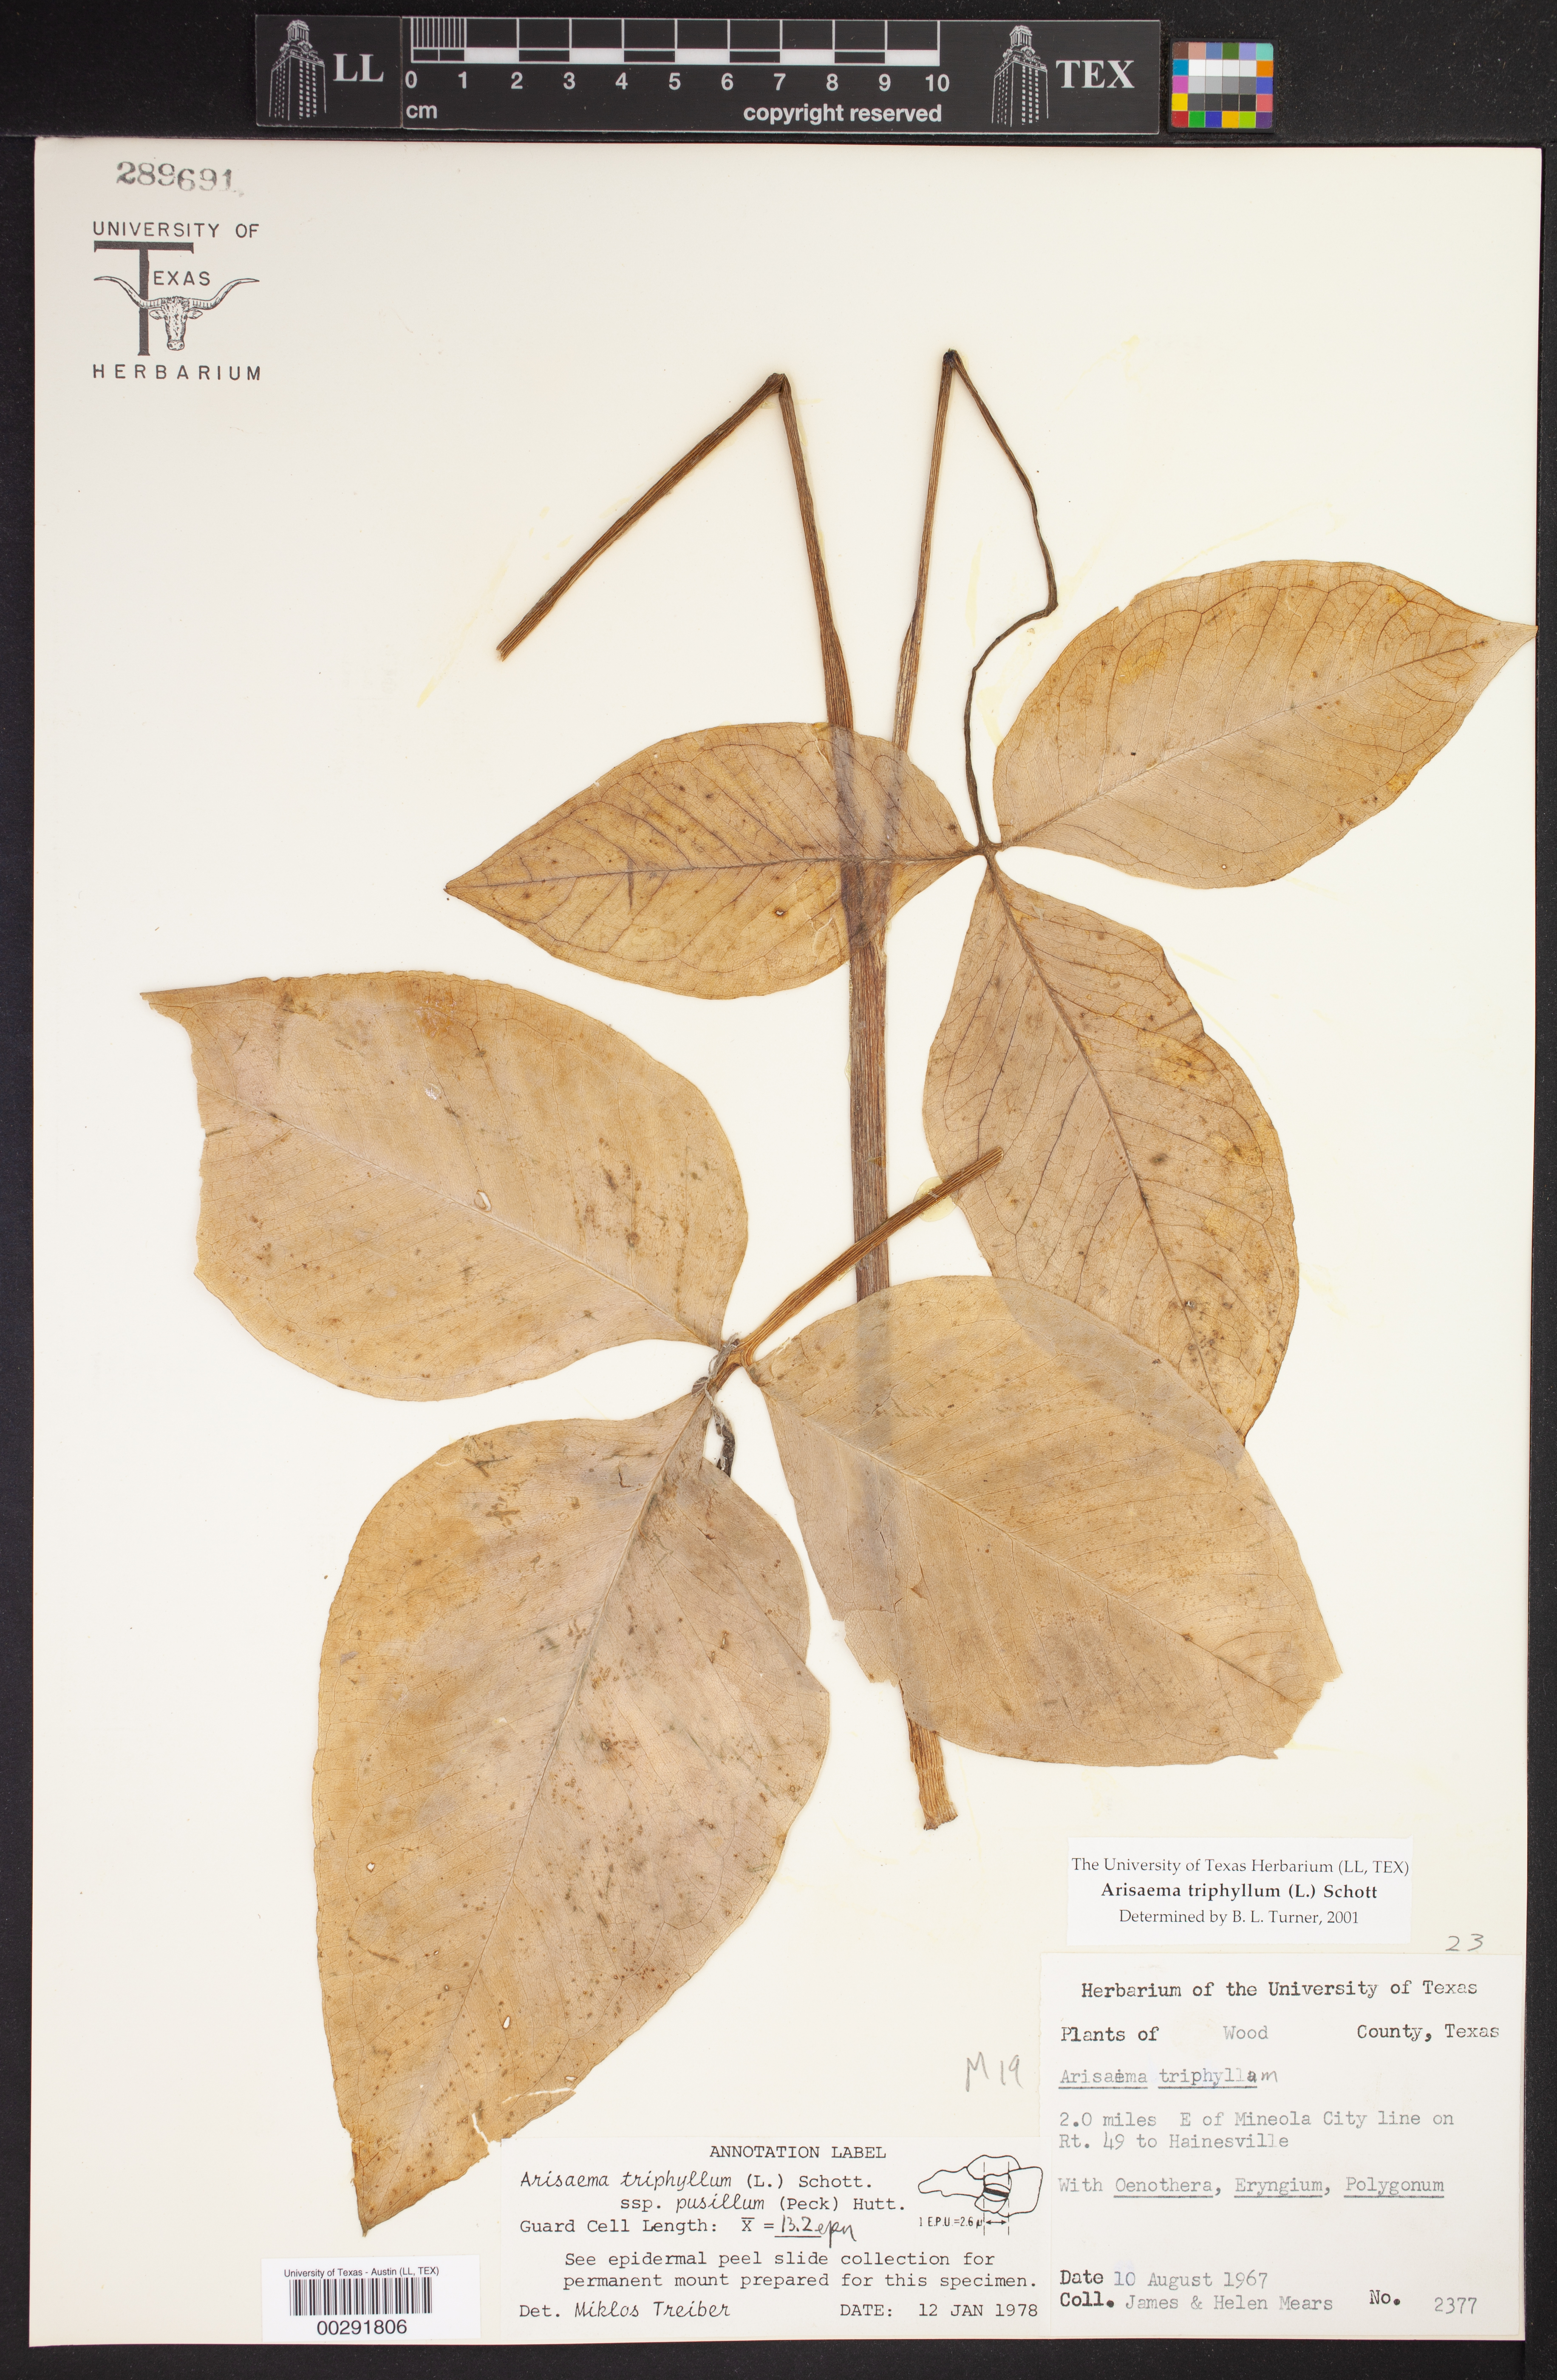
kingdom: Plantae
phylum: Tracheophyta
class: Liliopsida
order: Alismatales
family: Araceae
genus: Arisaema
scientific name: Arisaema triphyllum
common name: Jack-in-the-pulpit
